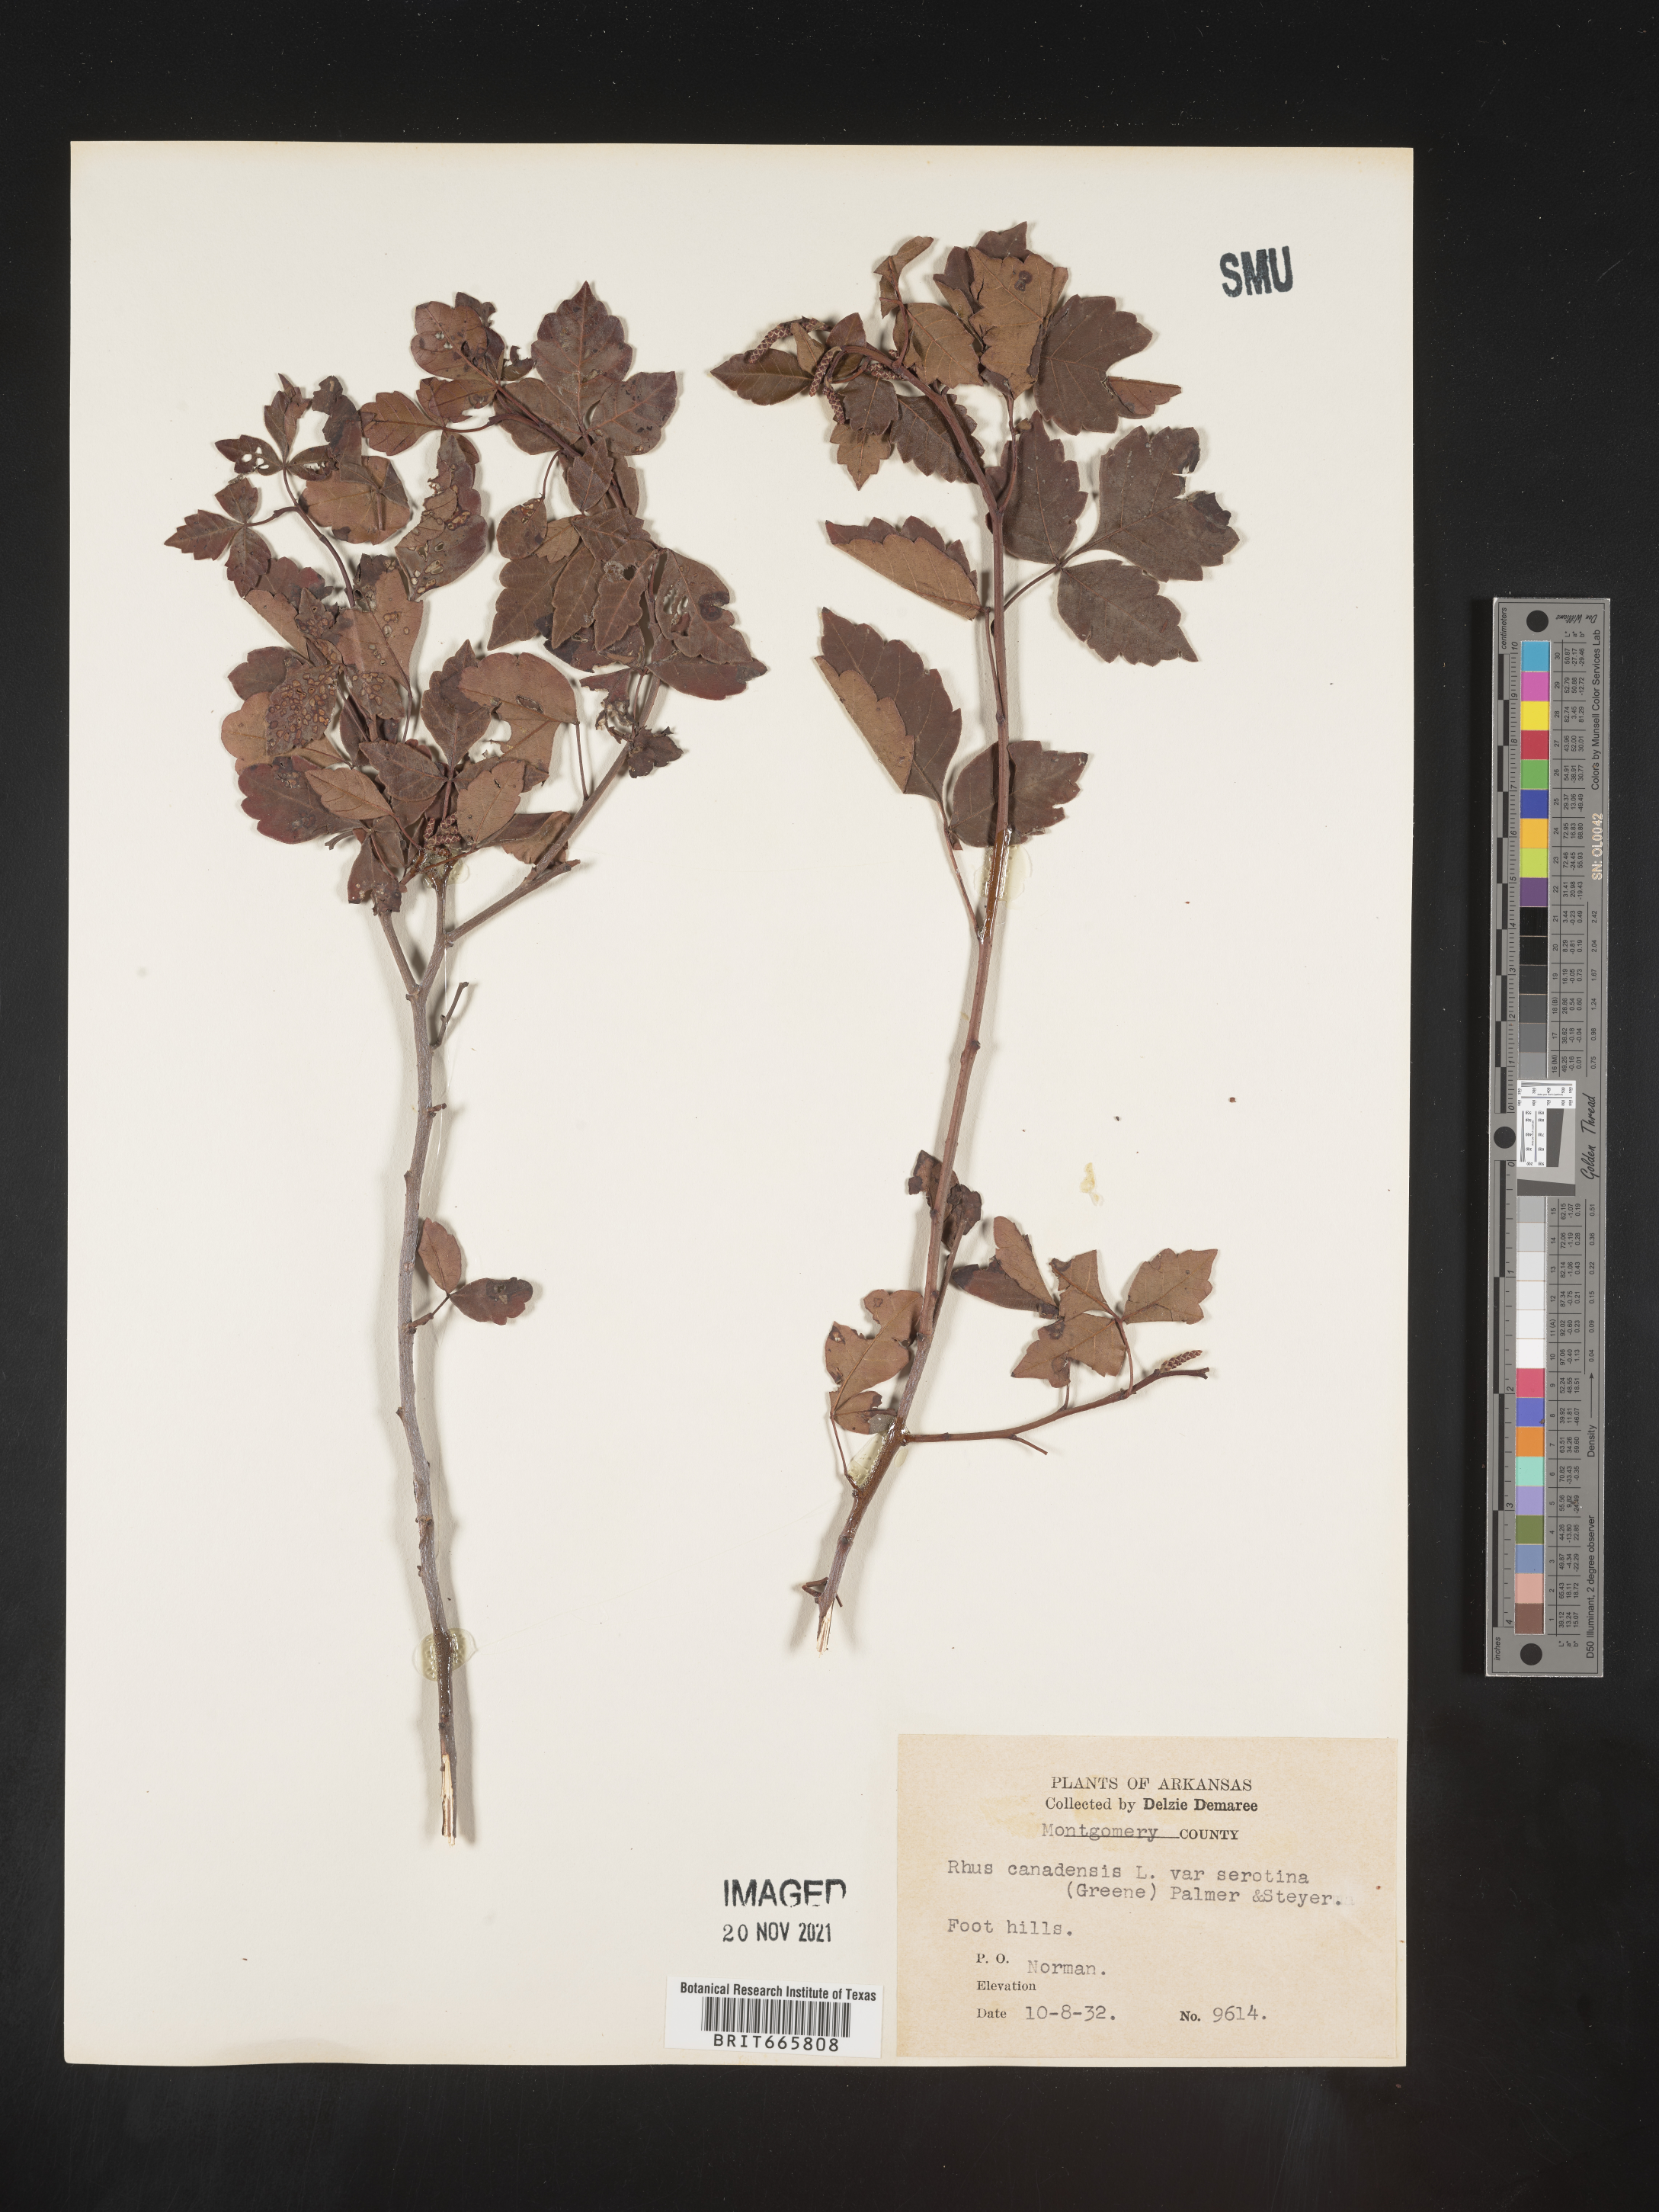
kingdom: Plantae
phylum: Tracheophyta
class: Magnoliopsida
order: Sapindales
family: Anacardiaceae
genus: Rhus
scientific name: Rhus aromatica
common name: Aromatic sumac
